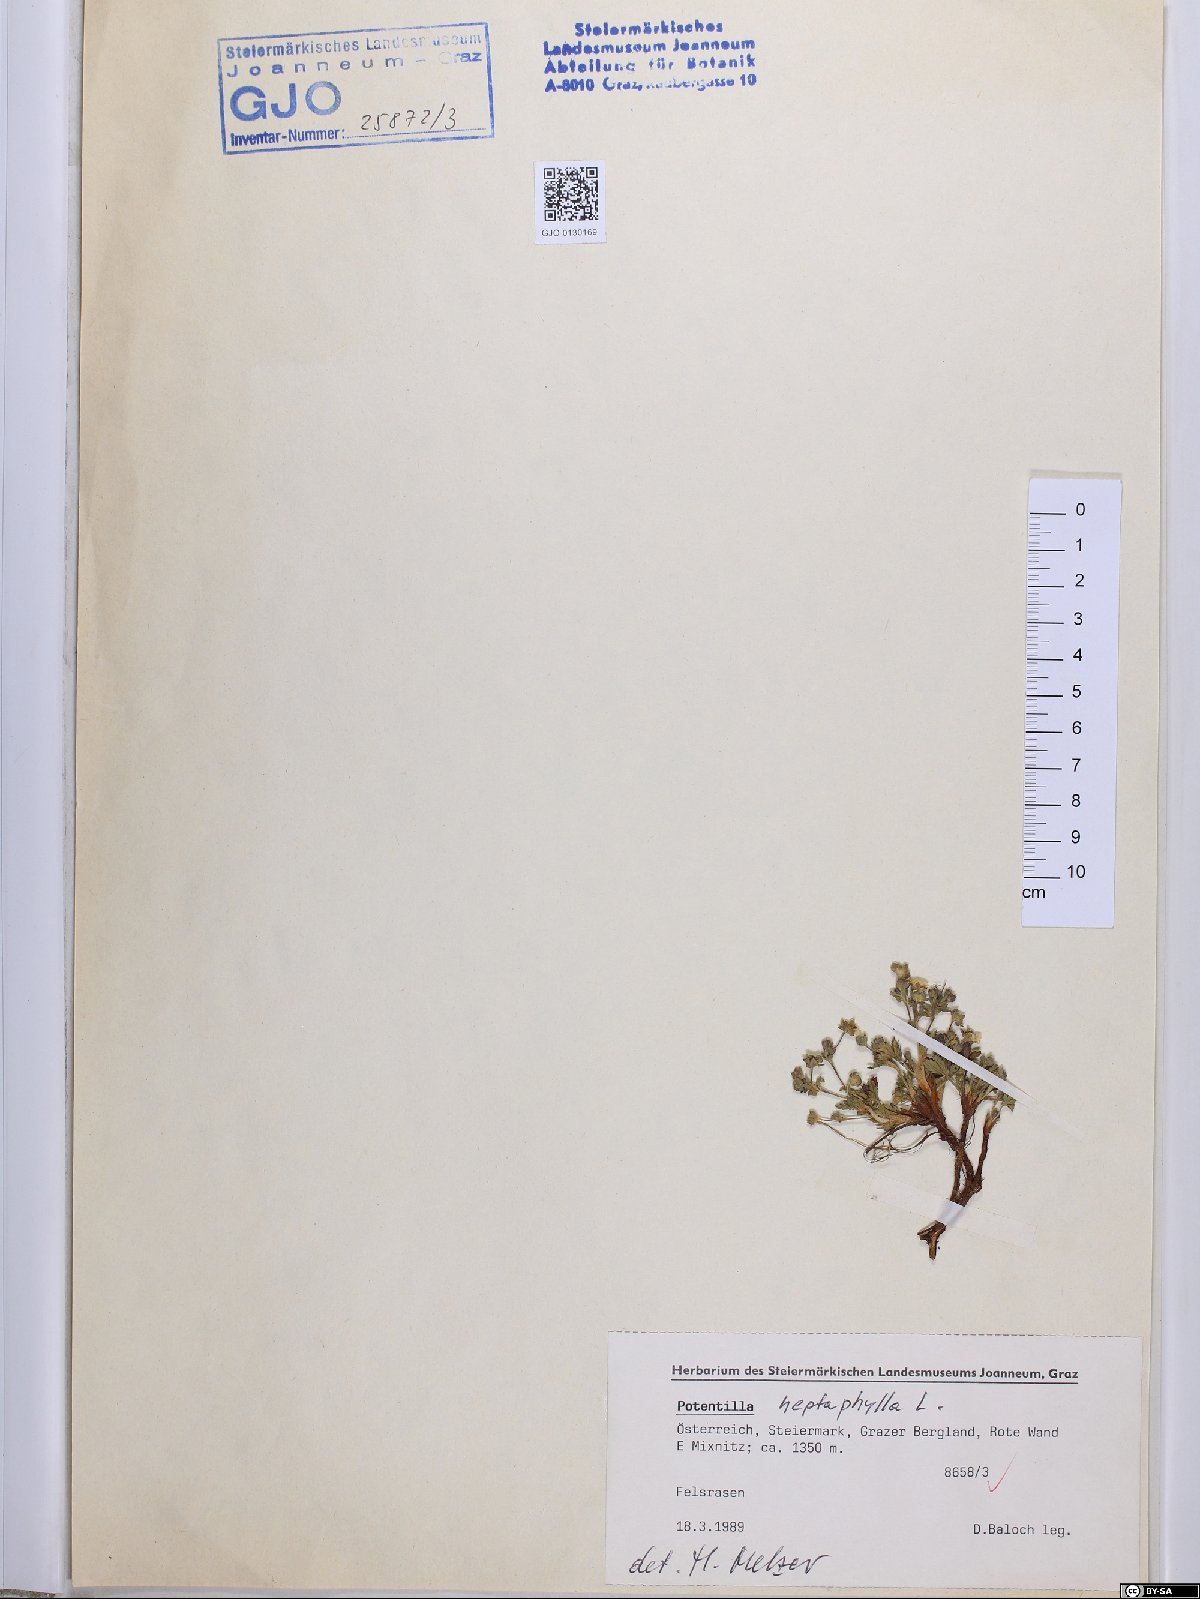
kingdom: Plantae
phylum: Tracheophyta
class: Magnoliopsida
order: Rosales
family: Rosaceae
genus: Potentilla
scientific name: Potentilla heptaphylla
